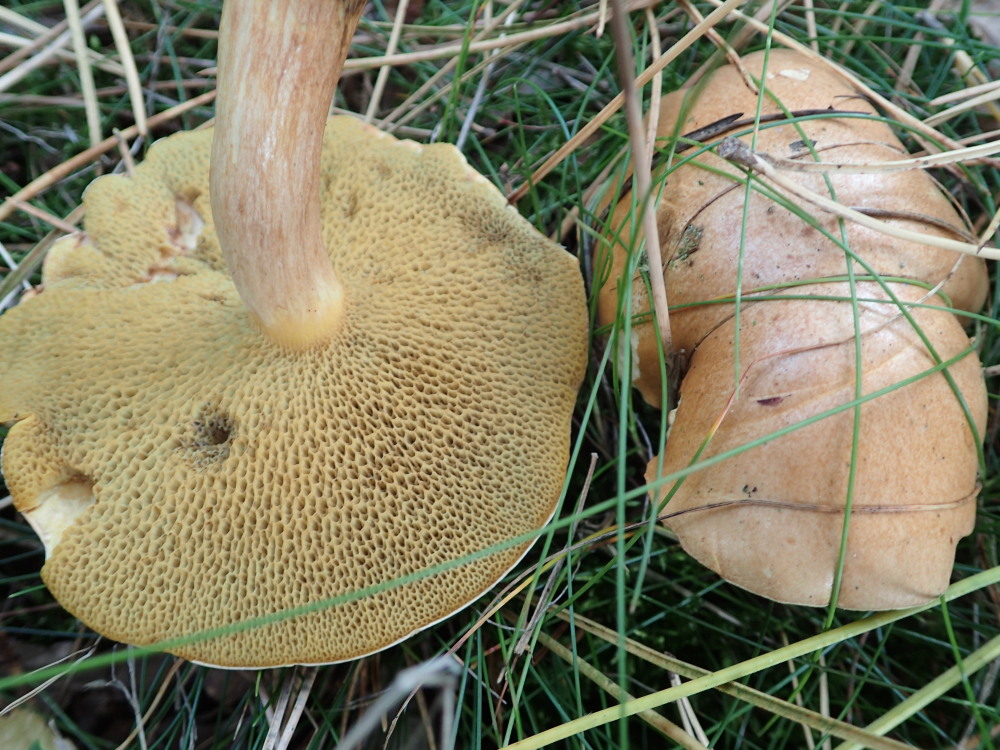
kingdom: Fungi
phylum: Basidiomycota
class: Agaricomycetes
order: Boletales
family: Suillaceae
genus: Suillus
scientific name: Suillus bovinus
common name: grovporet slimrørhat
